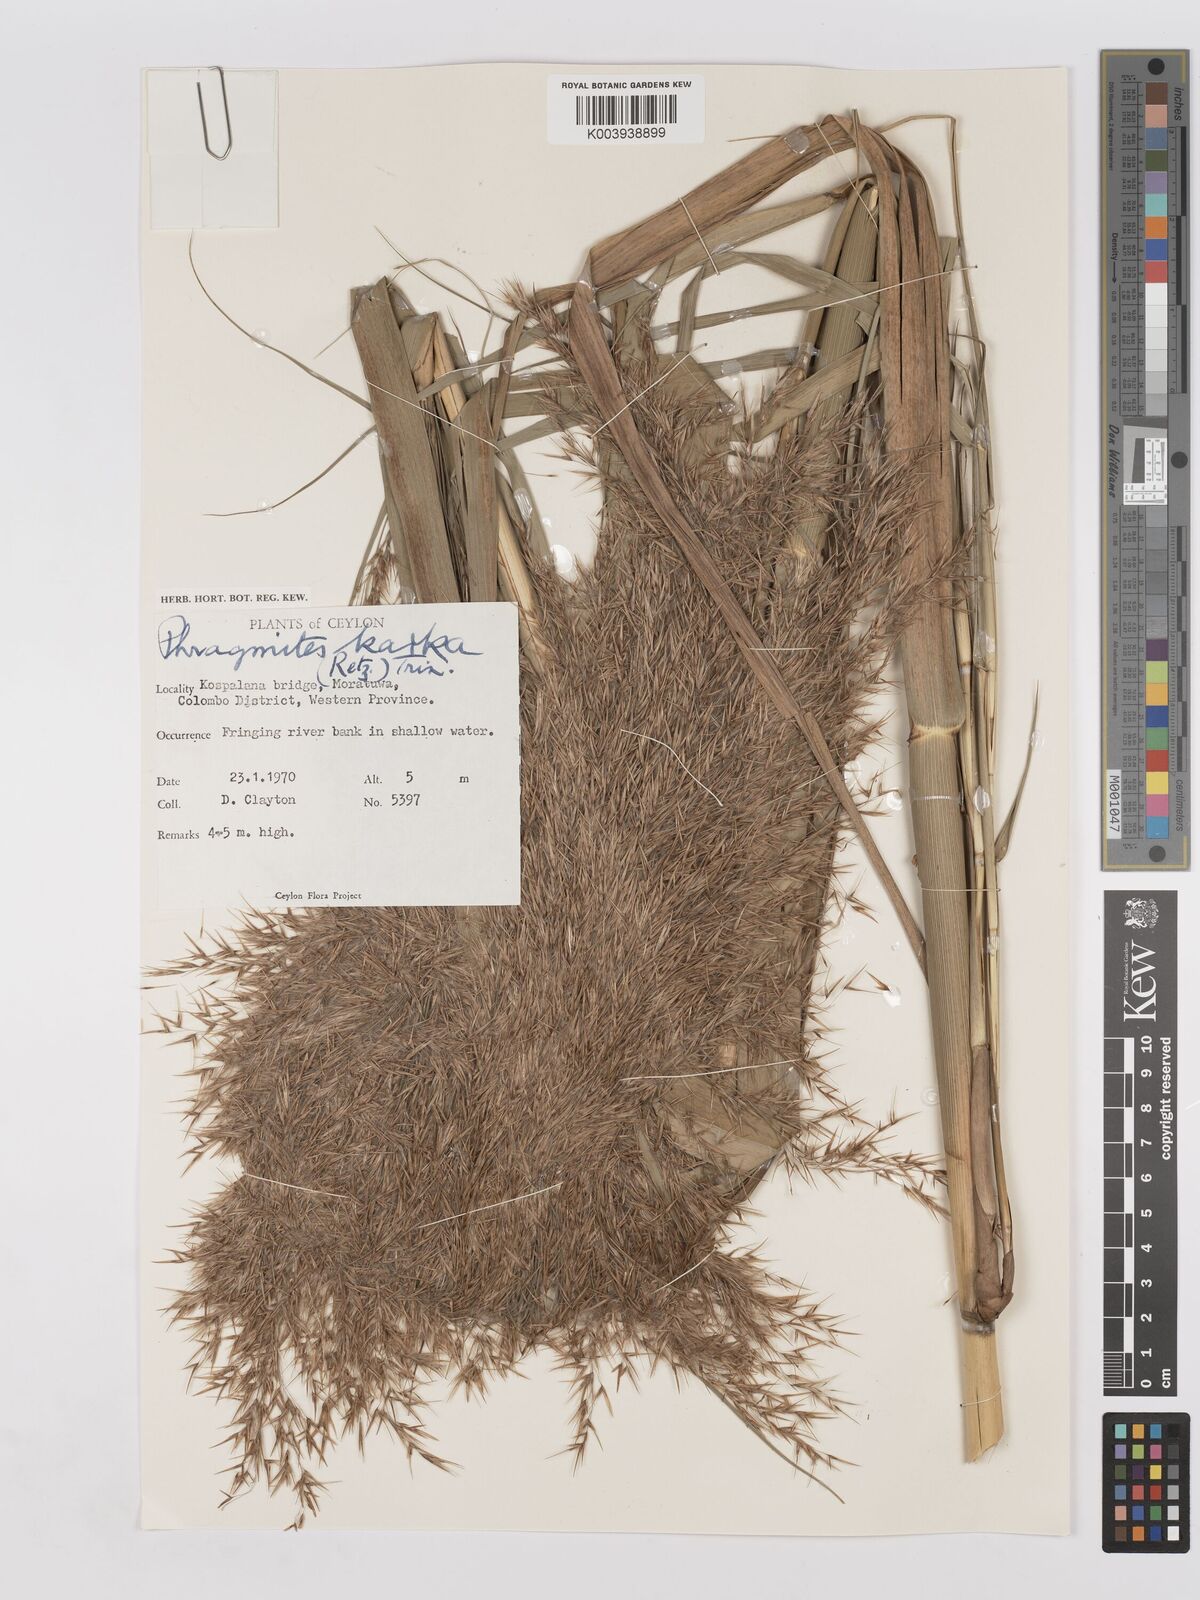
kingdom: Plantae
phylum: Tracheophyta
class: Liliopsida
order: Poales
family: Poaceae
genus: Phragmites
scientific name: Phragmites karka
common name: Tropical reed
